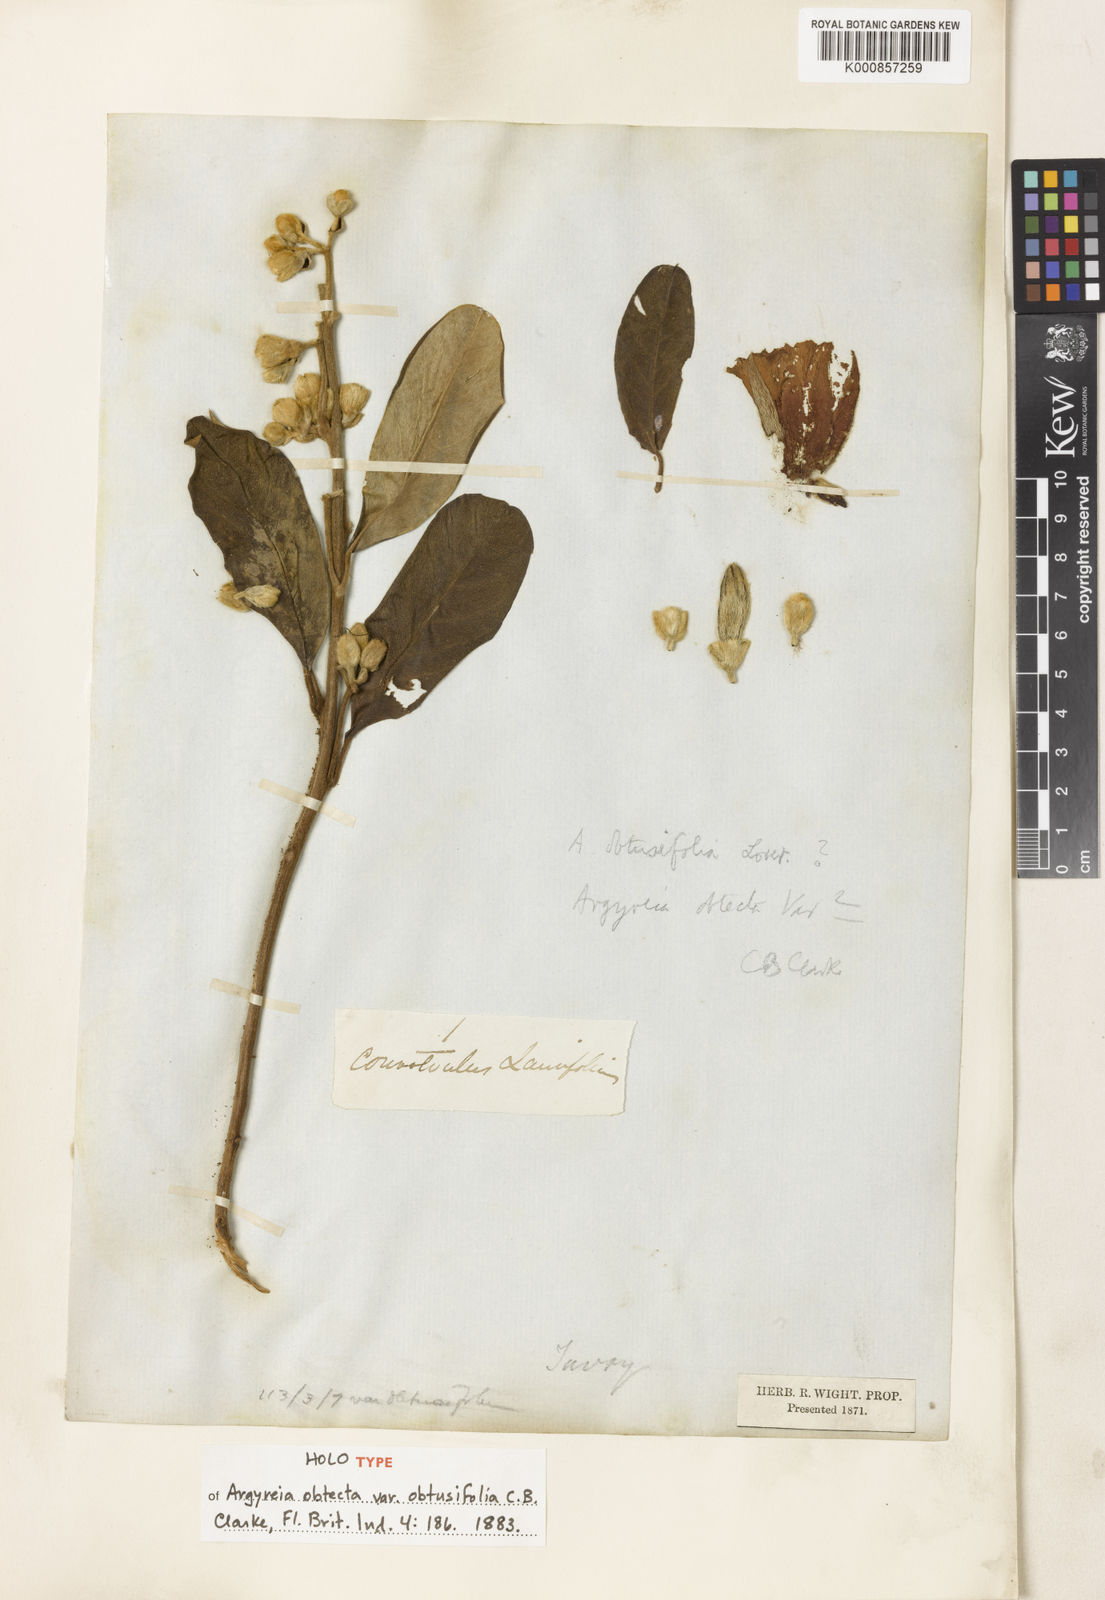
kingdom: Plantae
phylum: Tracheophyta
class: Magnoliopsida
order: Solanales
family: Convolvulaceae
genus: Argyreia
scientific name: Argyreia mollis
